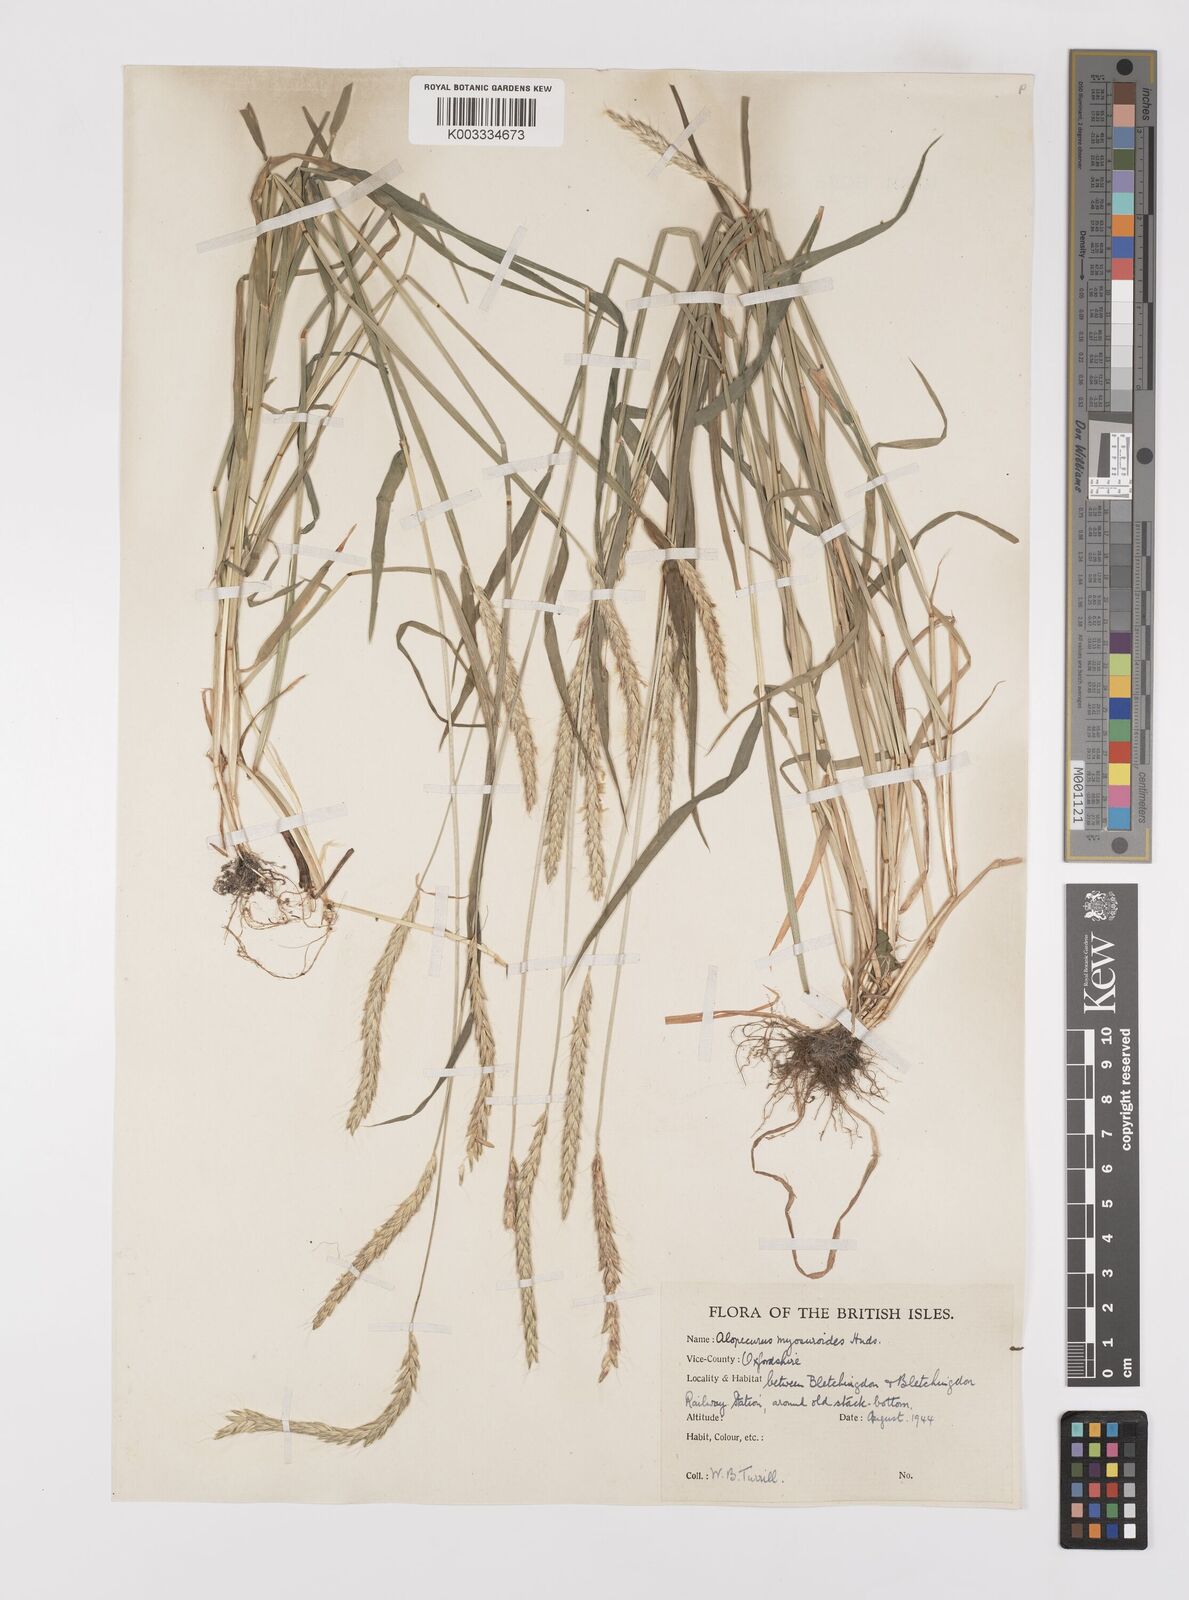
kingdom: Plantae
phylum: Tracheophyta
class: Liliopsida
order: Poales
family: Poaceae
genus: Alopecurus
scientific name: Alopecurus myosuroides
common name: Black-grass
